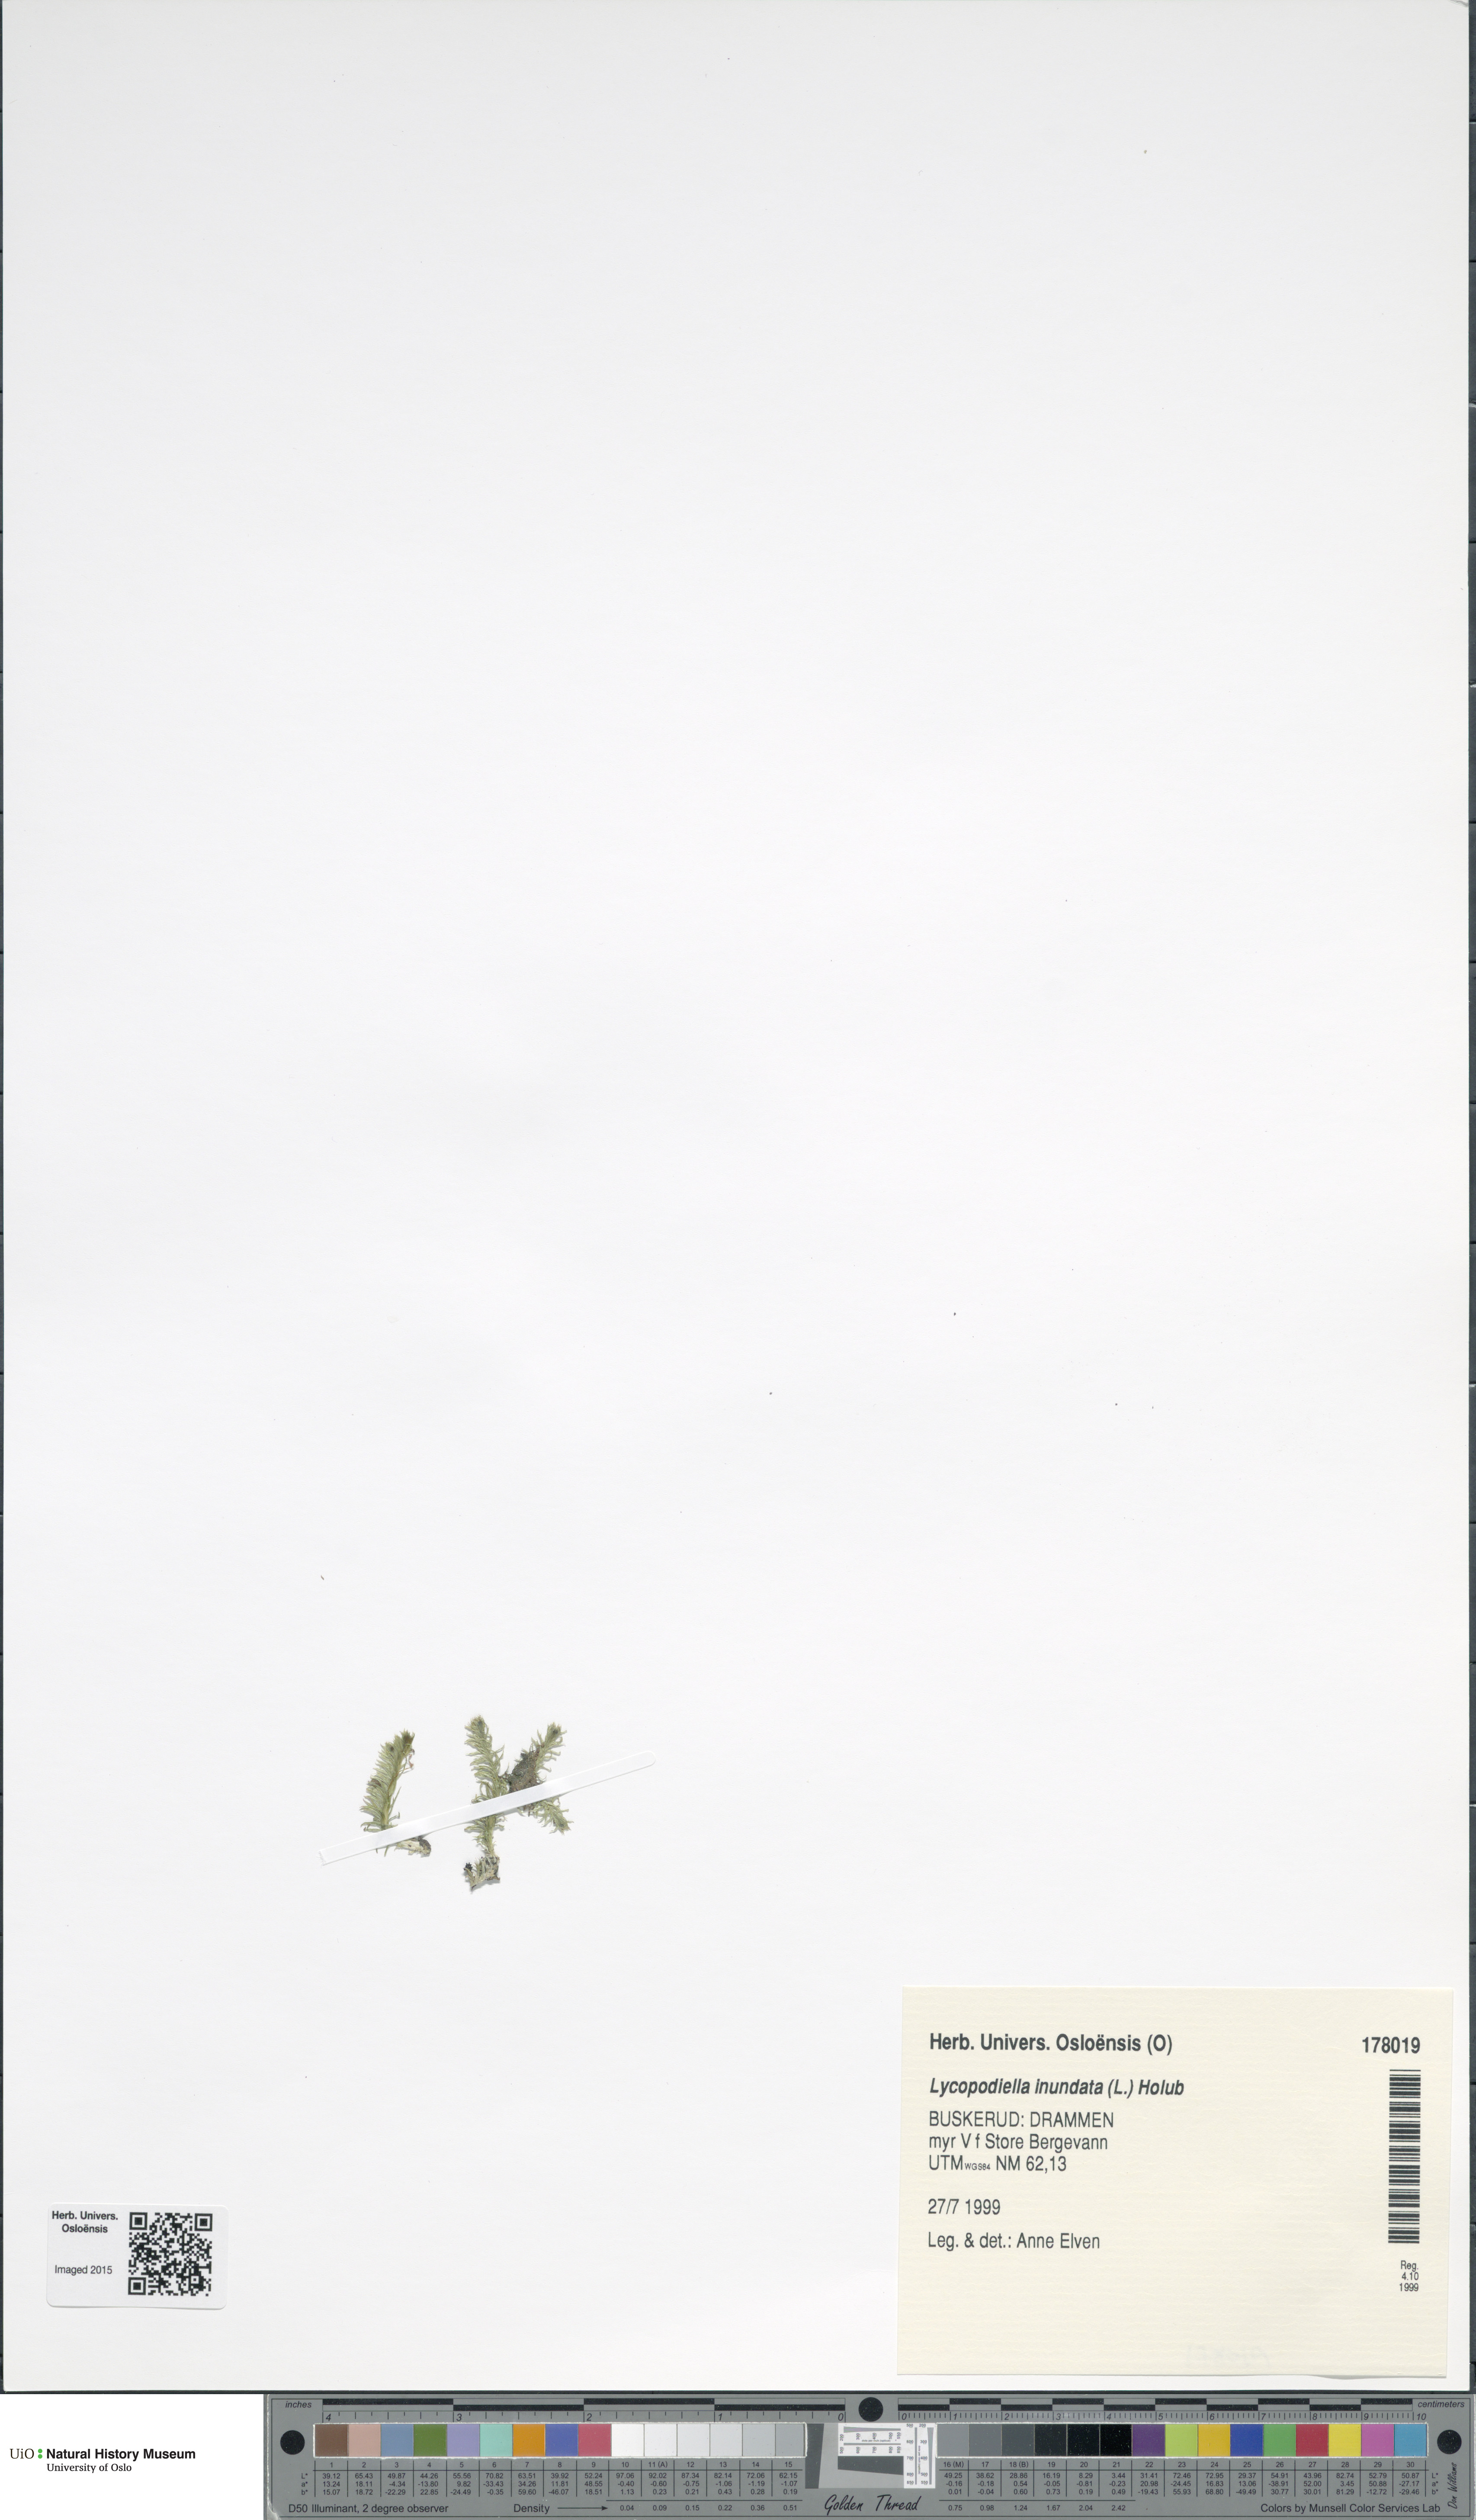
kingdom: Plantae
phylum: Tracheophyta
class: Lycopodiopsida
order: Lycopodiales
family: Lycopodiaceae
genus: Lycopodiella
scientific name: Lycopodiella inundata
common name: Marsh clubmoss
